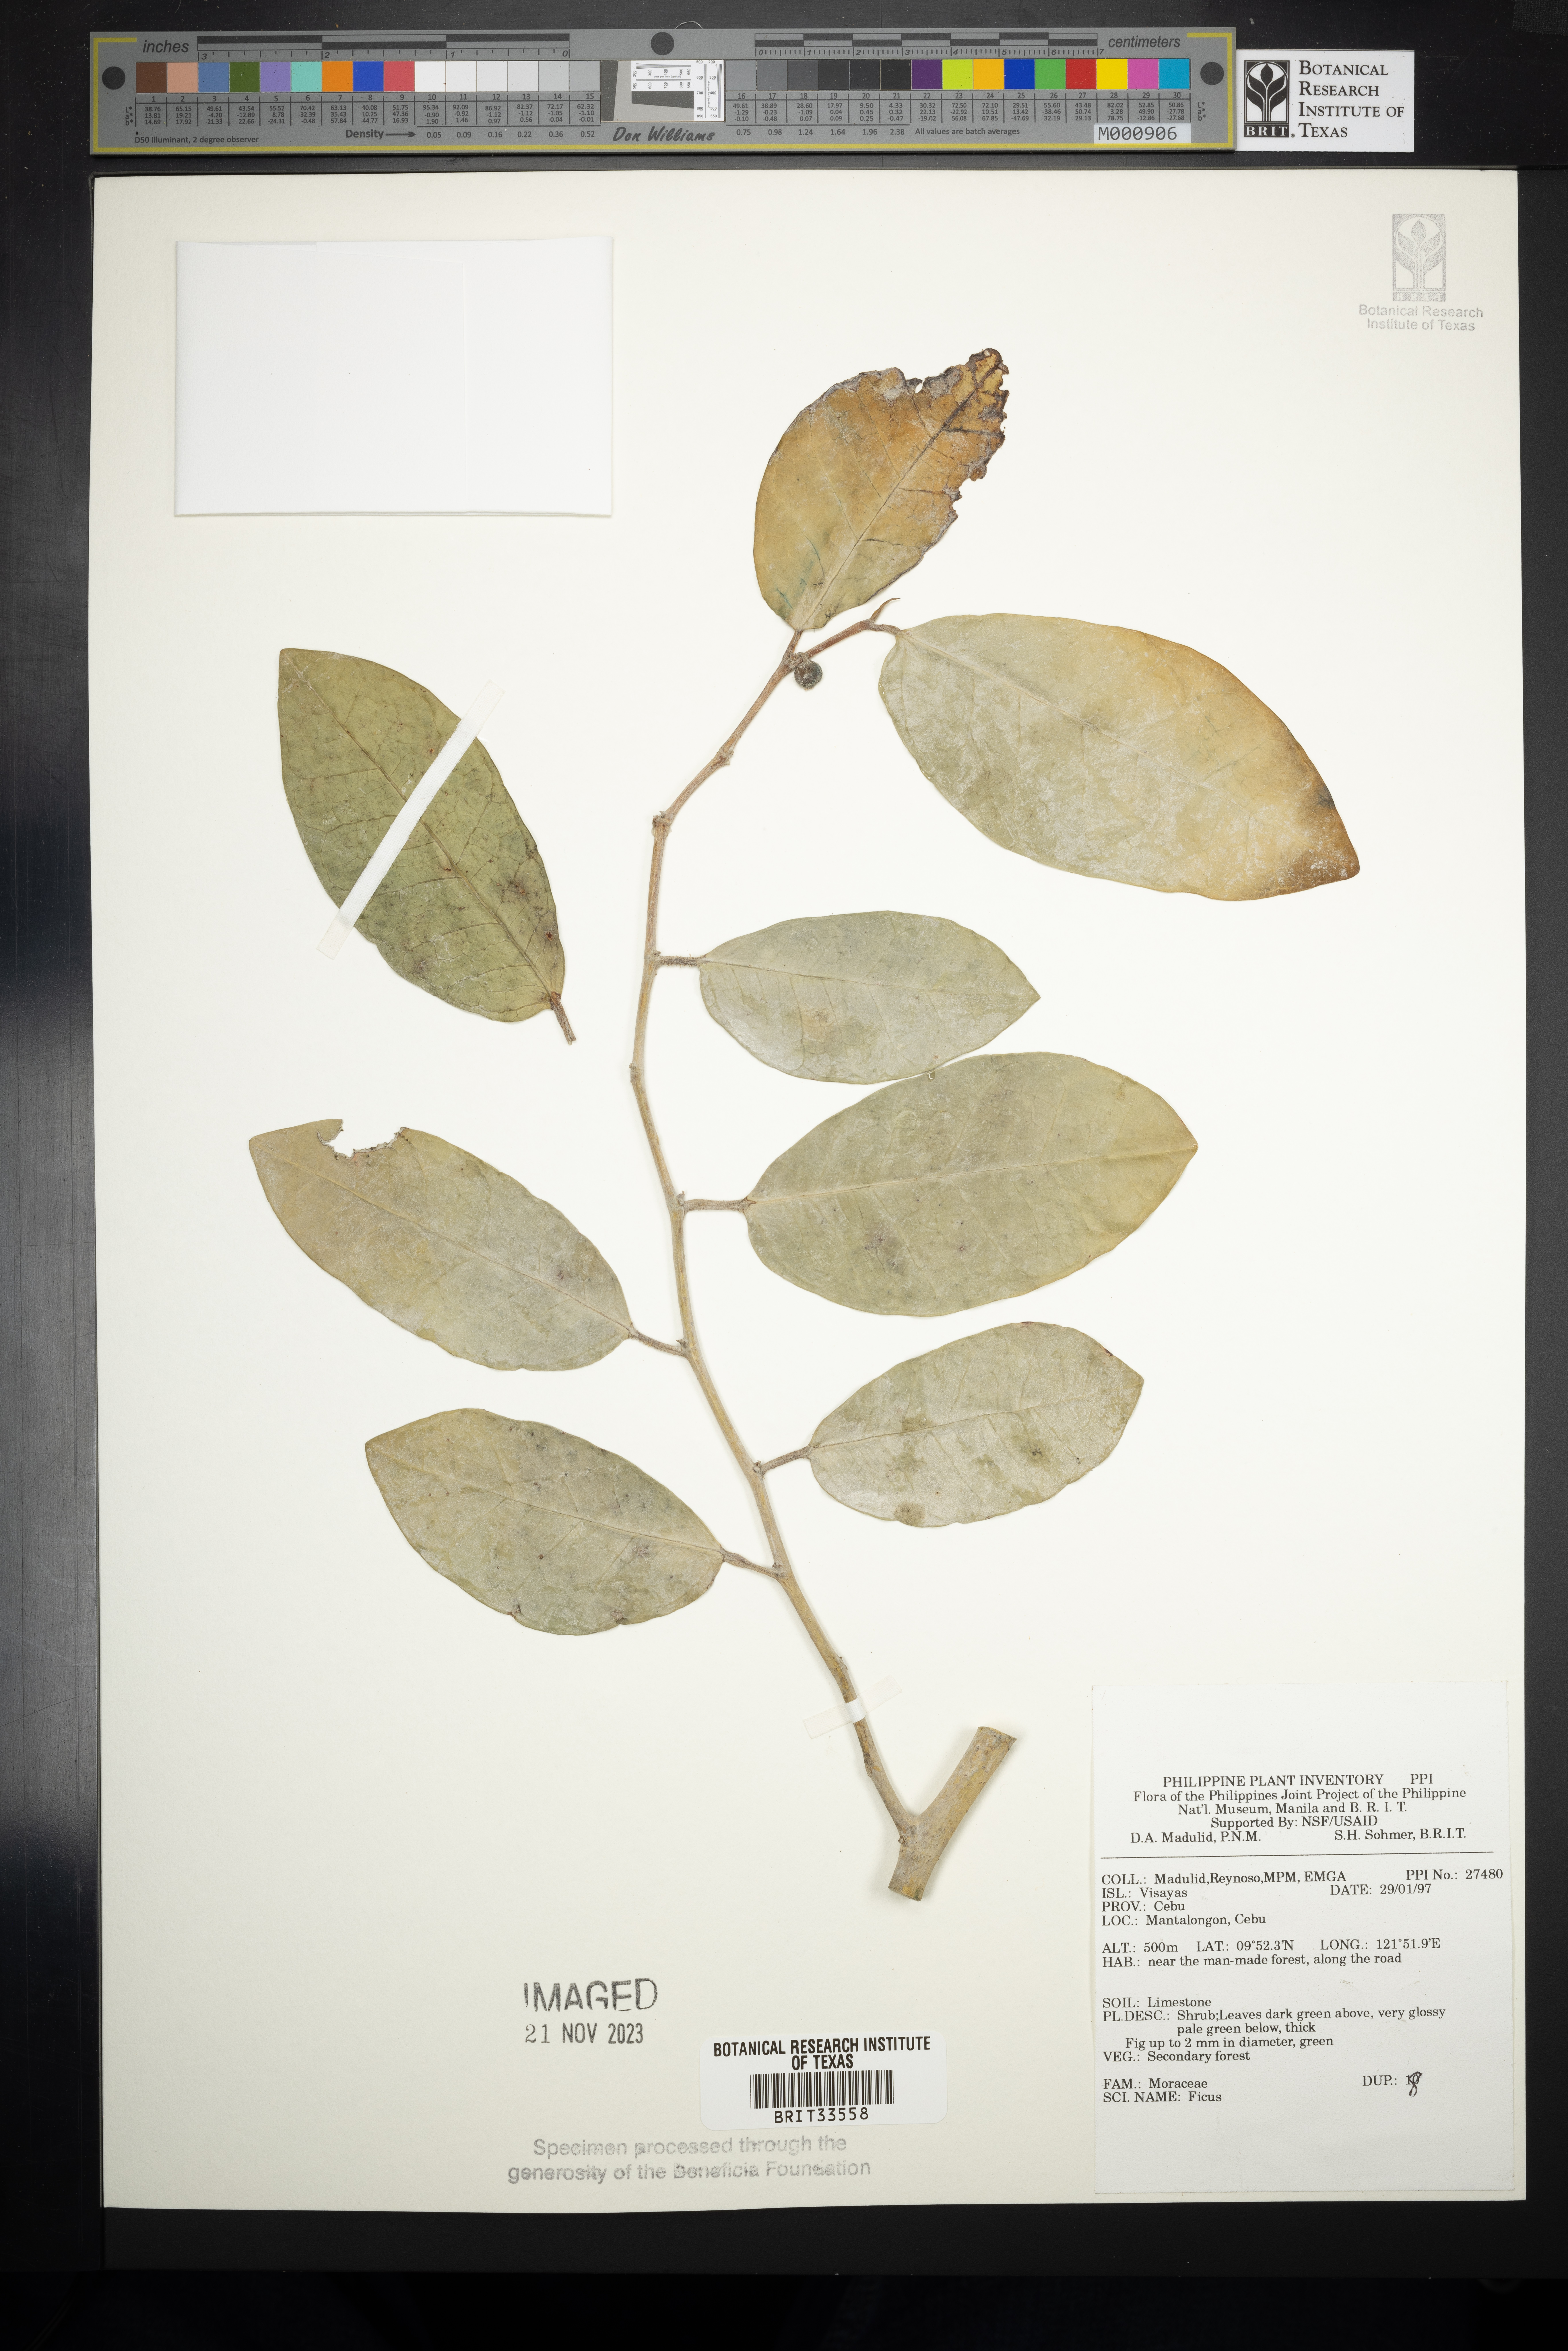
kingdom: Plantae
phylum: Tracheophyta
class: Magnoliopsida
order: Rosales
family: Moraceae
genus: Ficus
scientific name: Ficus
